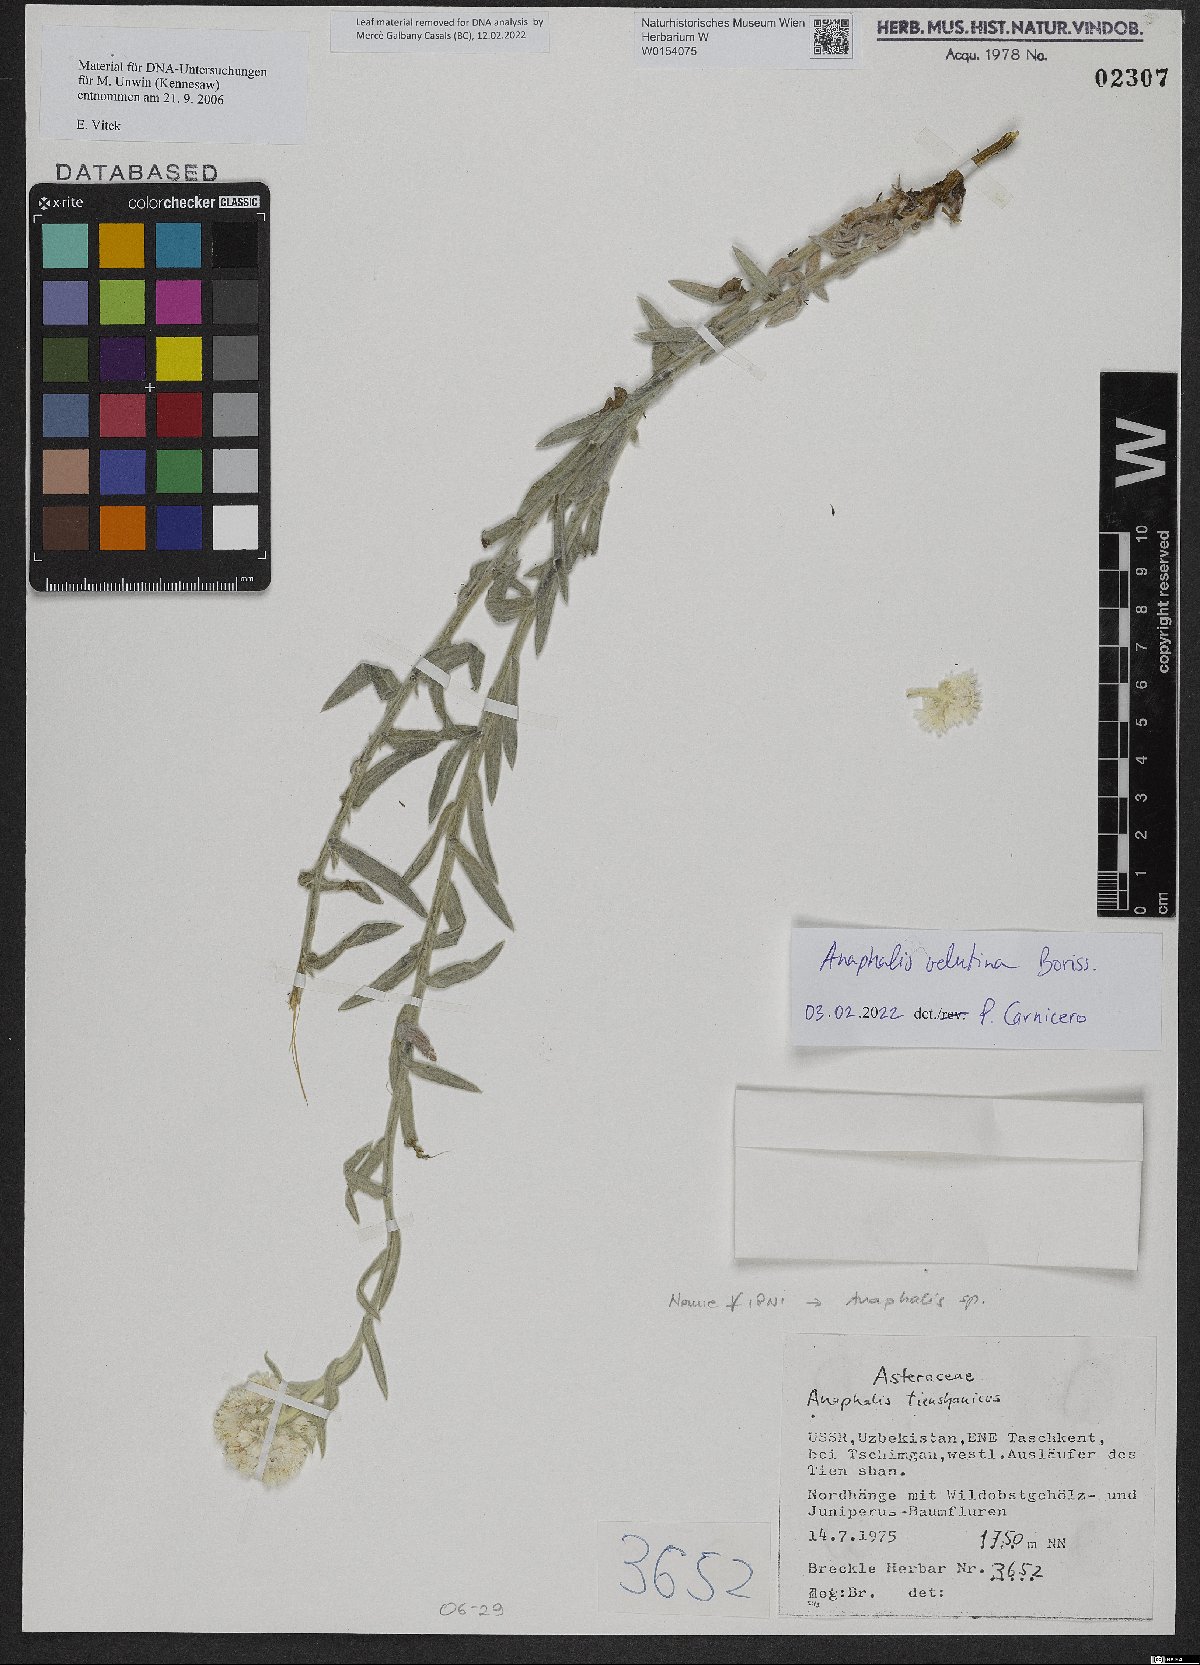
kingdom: Plantae
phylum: Tracheophyta
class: Magnoliopsida
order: Asterales
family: Asteraceae
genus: Anaphalis
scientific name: Anaphalis velutina
